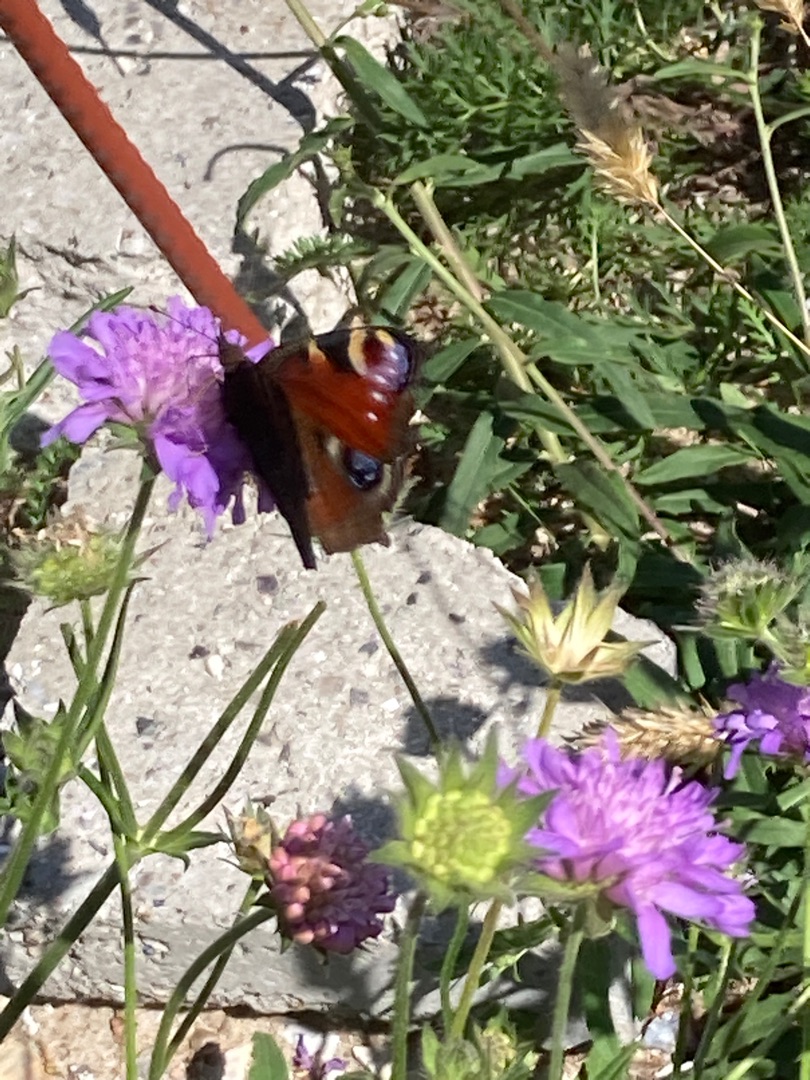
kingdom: Animalia
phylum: Arthropoda
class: Insecta
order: Lepidoptera
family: Nymphalidae
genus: Aglais
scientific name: Aglais io
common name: Dagpåfugleøje
